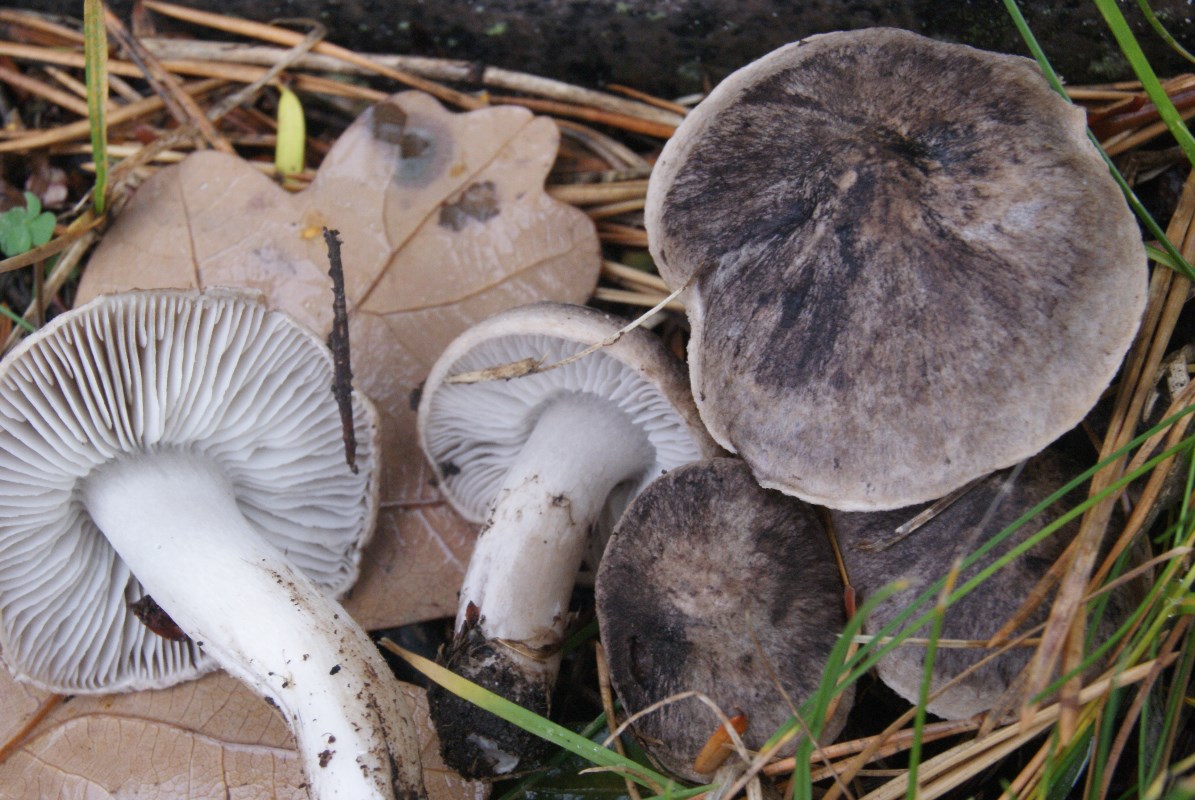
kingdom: Fungi
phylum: Basidiomycota
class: Agaricomycetes
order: Agaricales
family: Tricholomataceae
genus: Tricholoma
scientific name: Tricholoma terreum
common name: jordfarvet ridderhat
